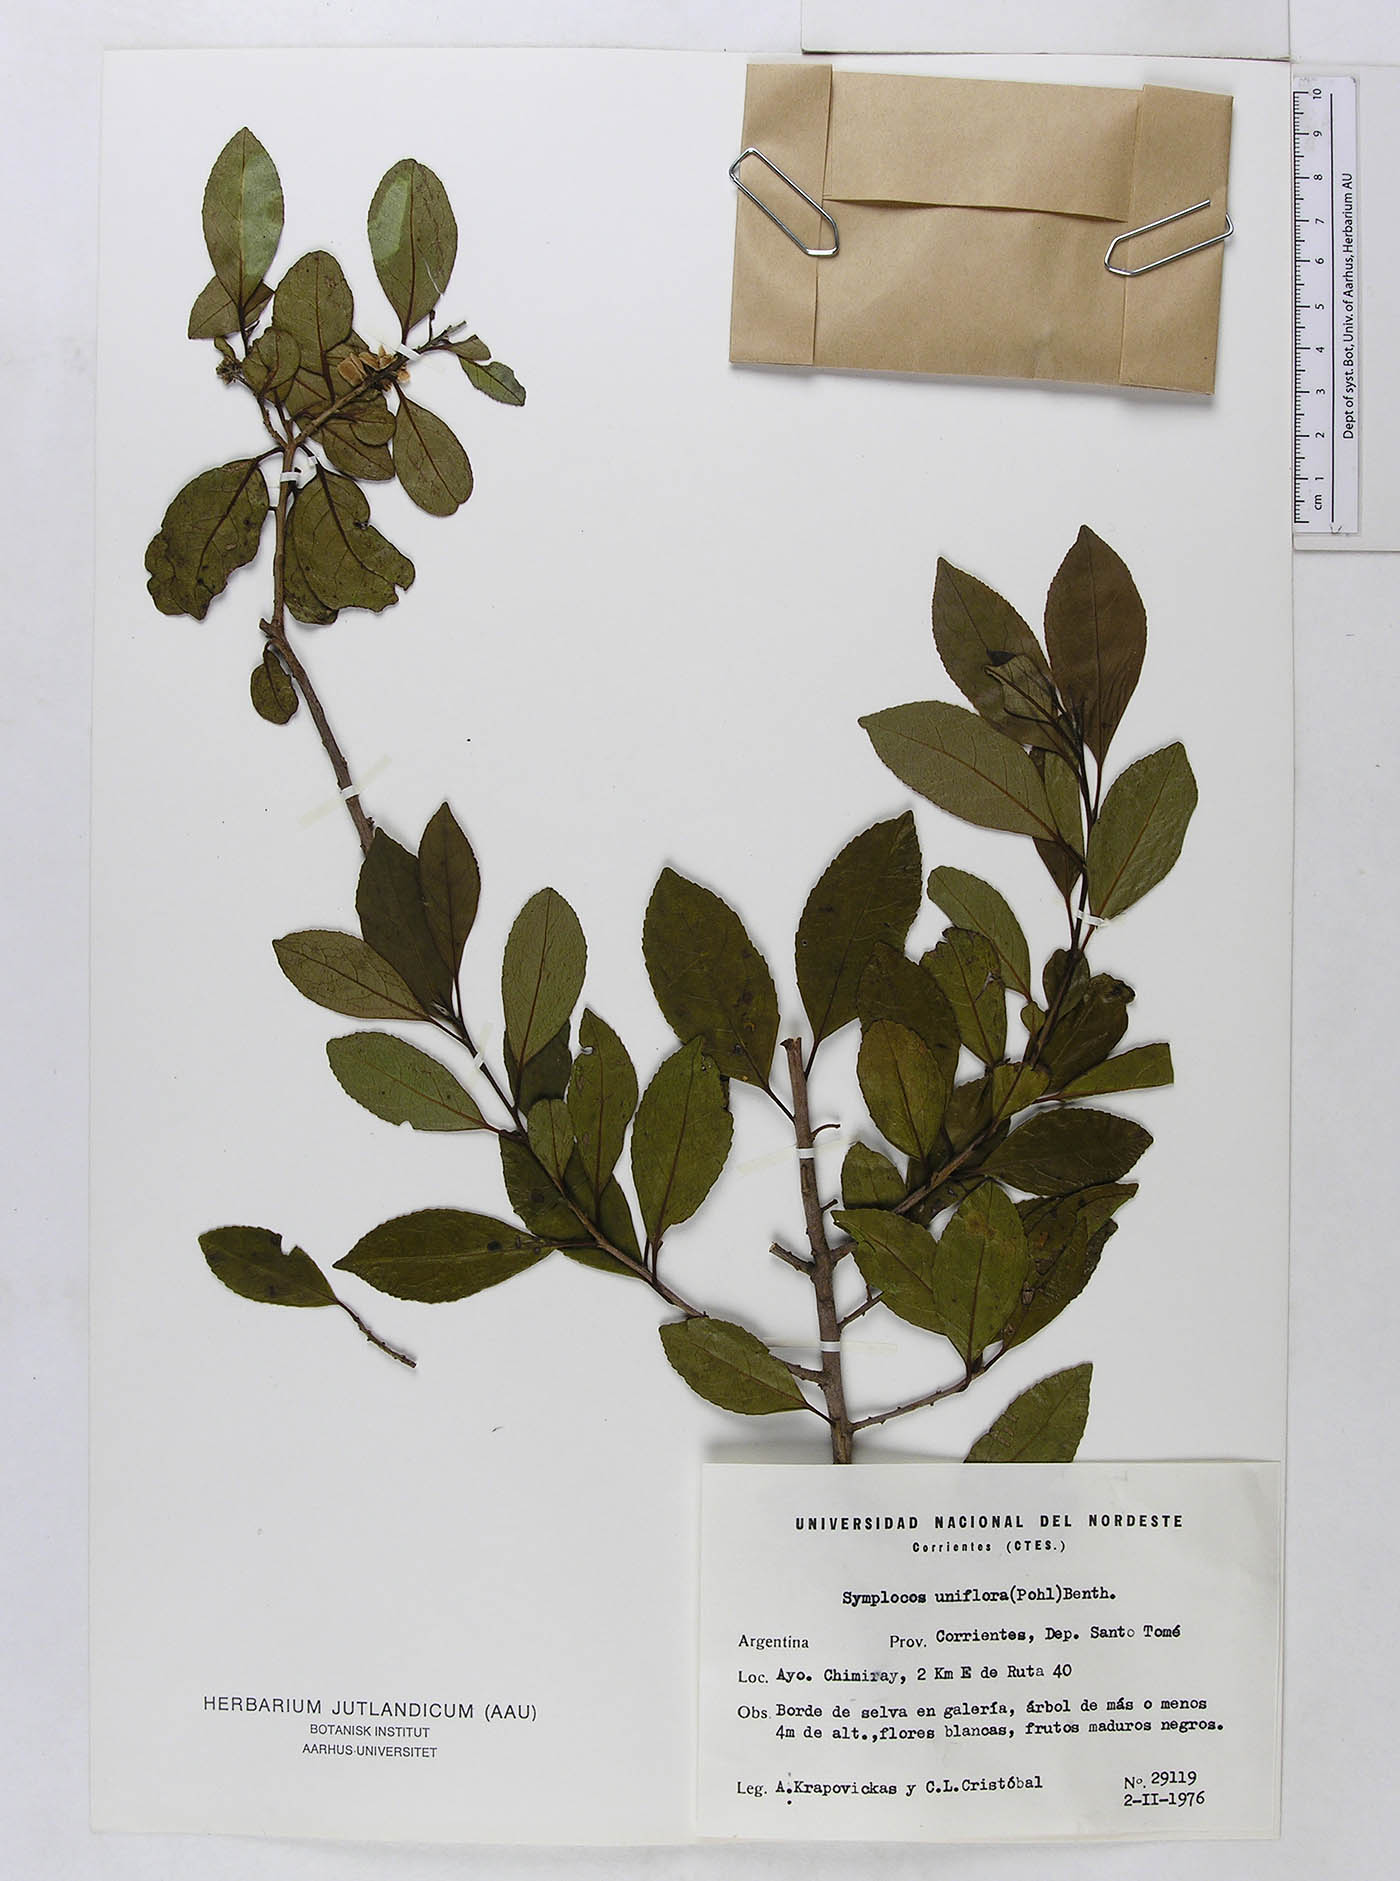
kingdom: Plantae
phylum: Tracheophyta
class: Magnoliopsida
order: Ericales
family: Symplocaceae
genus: Symplocos
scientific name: Symplocos uniflora
